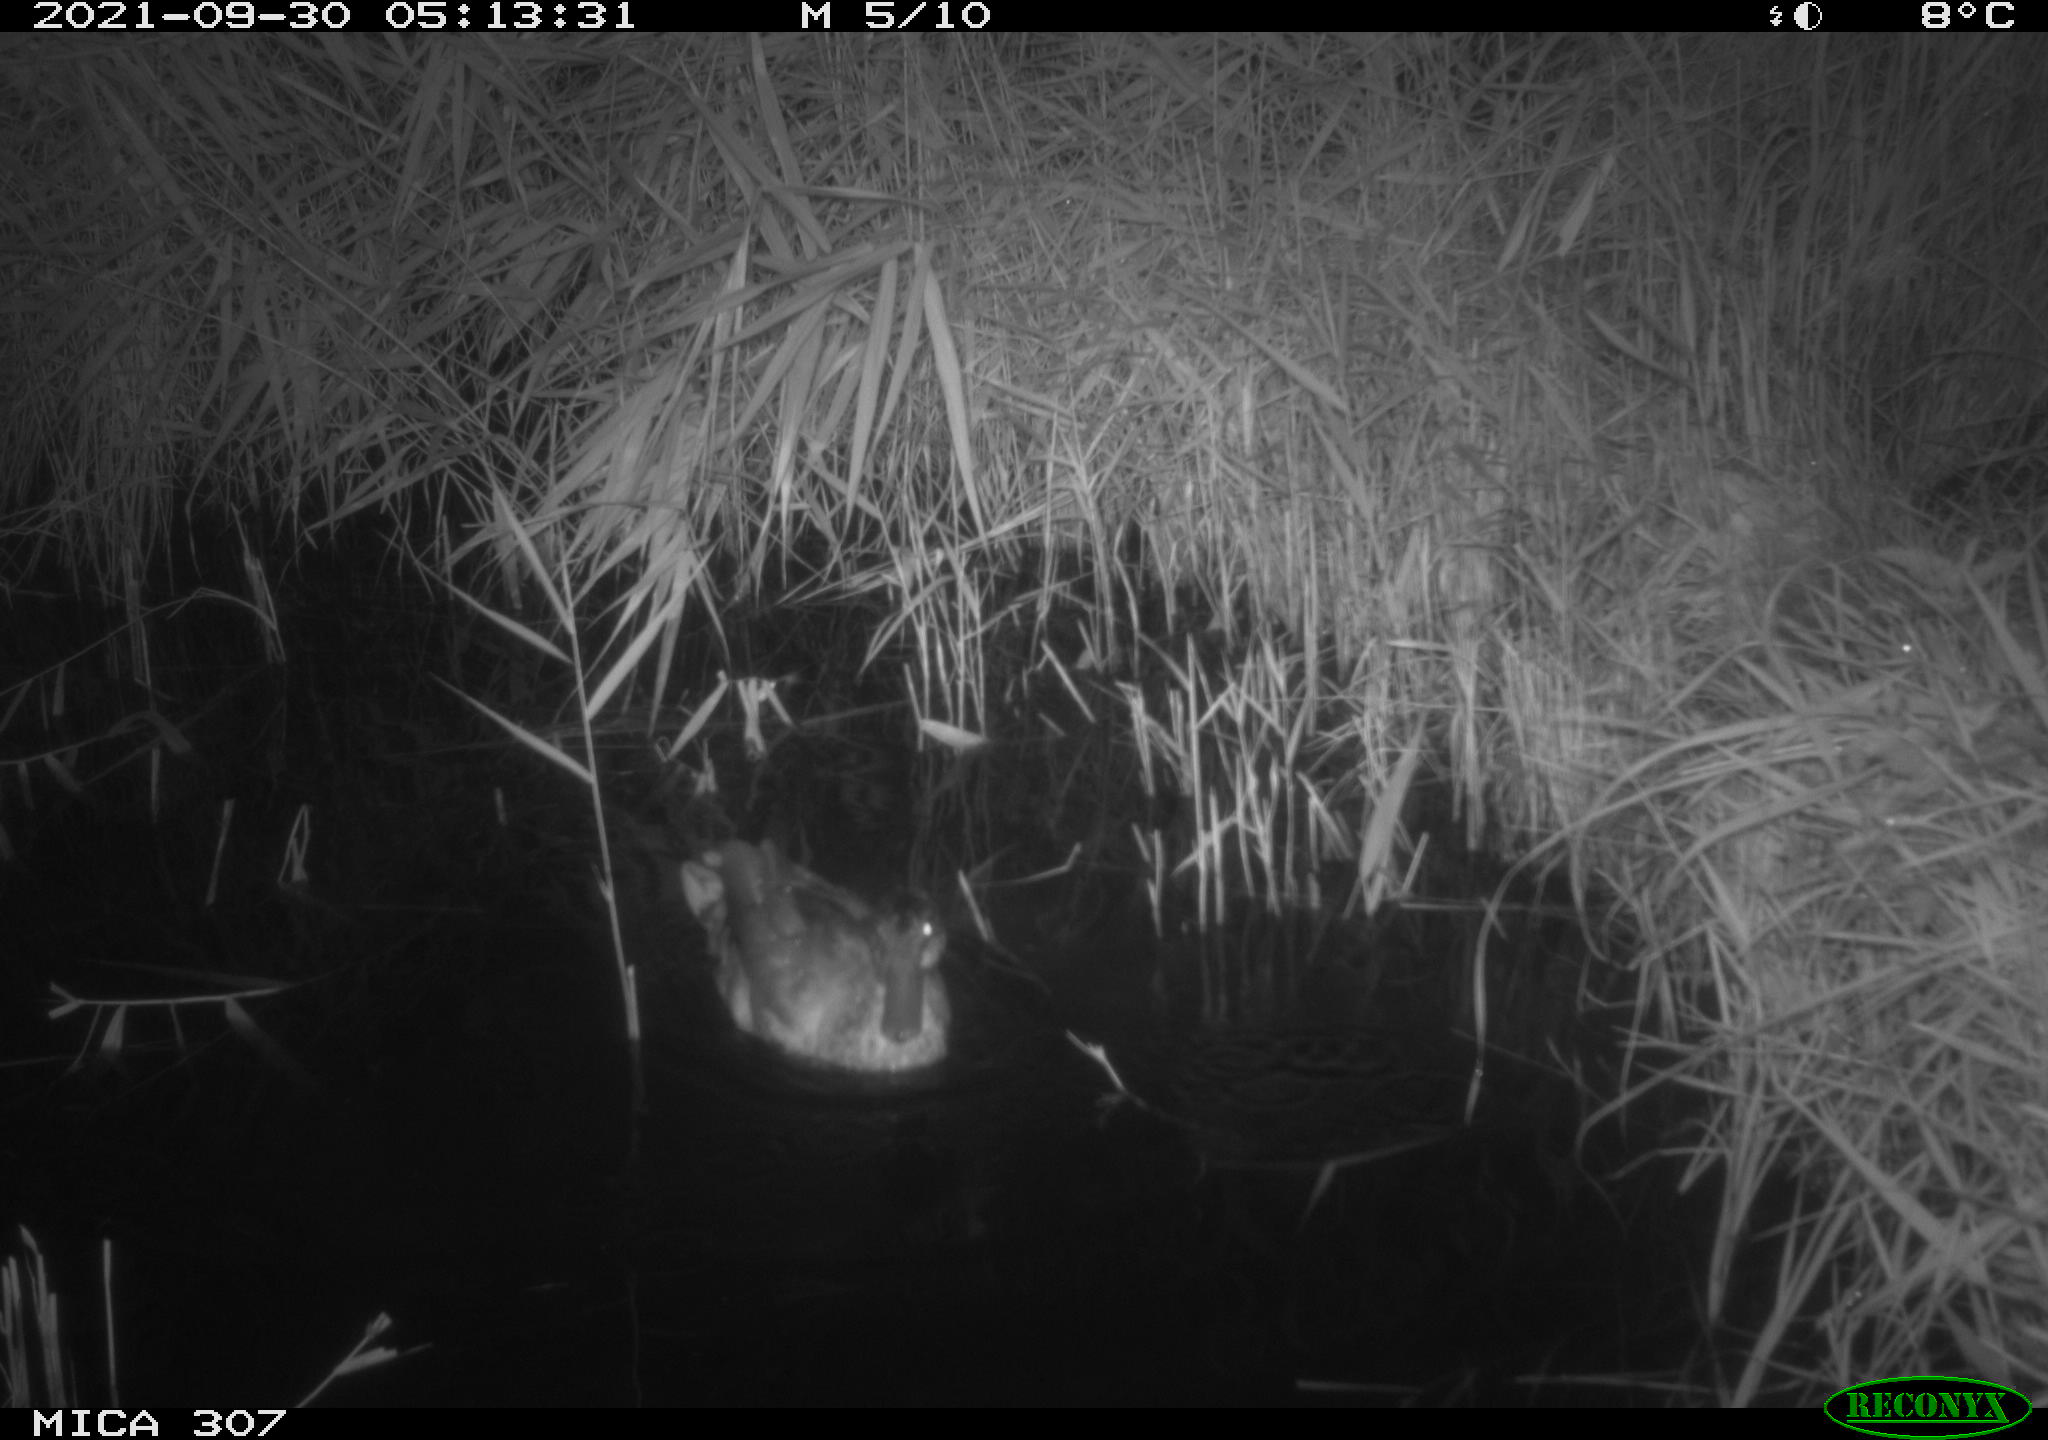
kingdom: Animalia
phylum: Chordata
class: Aves
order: Anseriformes
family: Anatidae
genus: Anas
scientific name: Anas platyrhynchos
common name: Mallard
